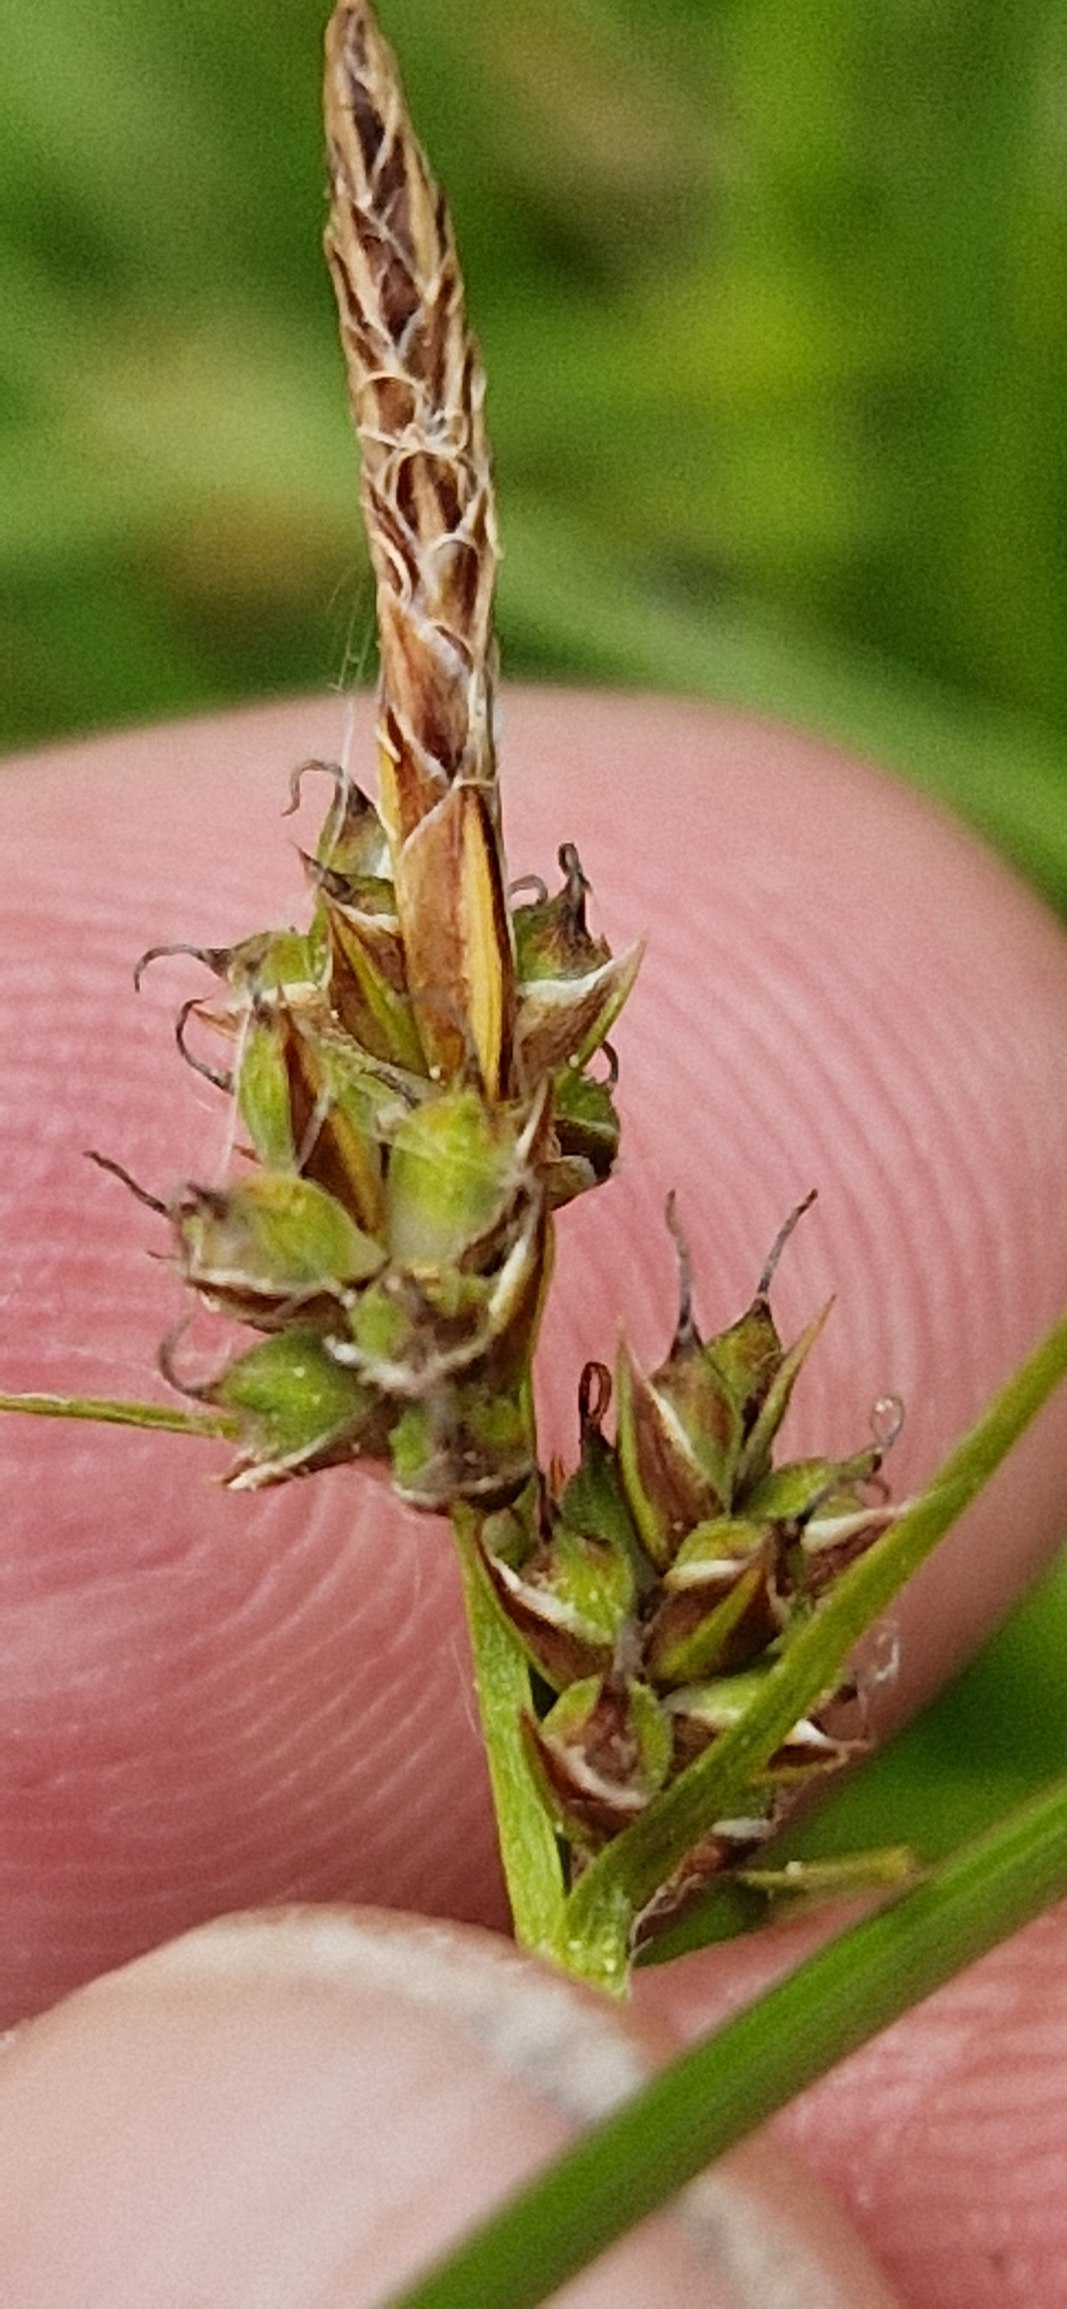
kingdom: Plantae
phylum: Tracheophyta
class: Liliopsida
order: Poales
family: Cyperaceae
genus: Carex
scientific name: Carex pilulifera
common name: Pille-star
